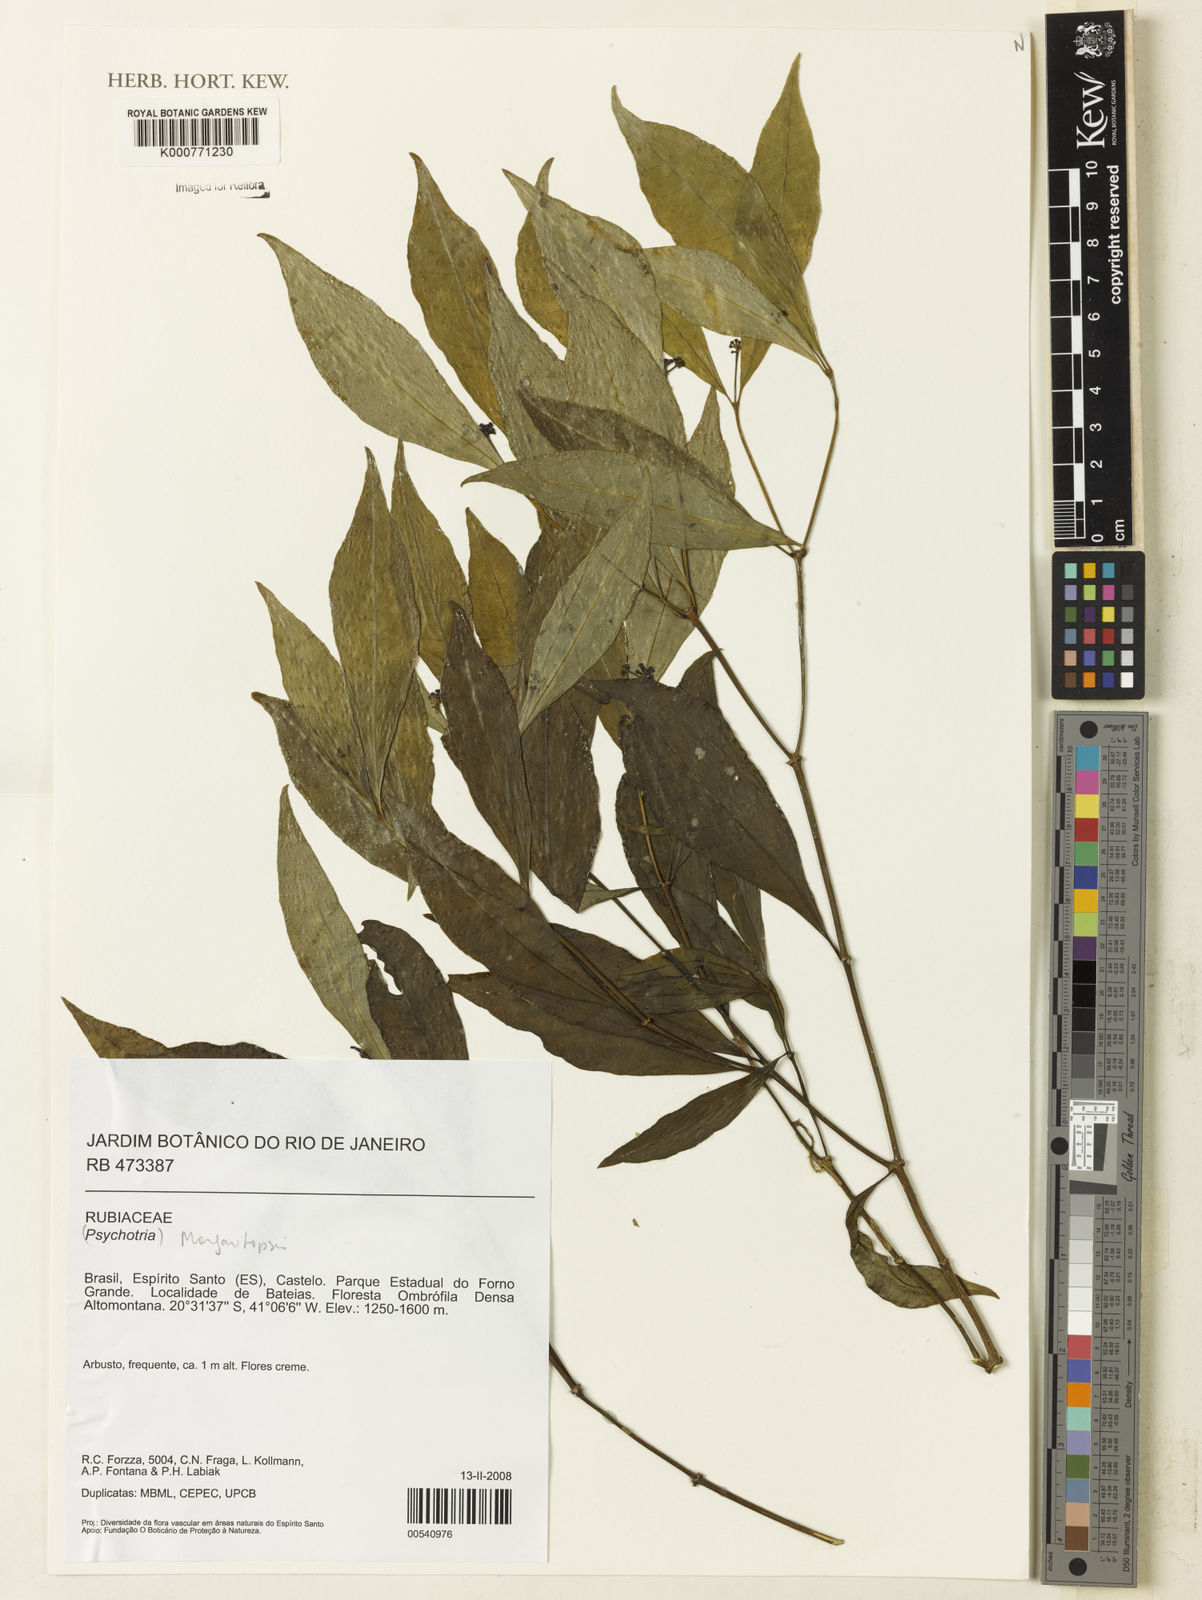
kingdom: Plantae
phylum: Tracheophyta
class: Magnoliopsida
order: Gentianales
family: Rubiaceae
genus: Eumachia
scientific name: Eumachia
